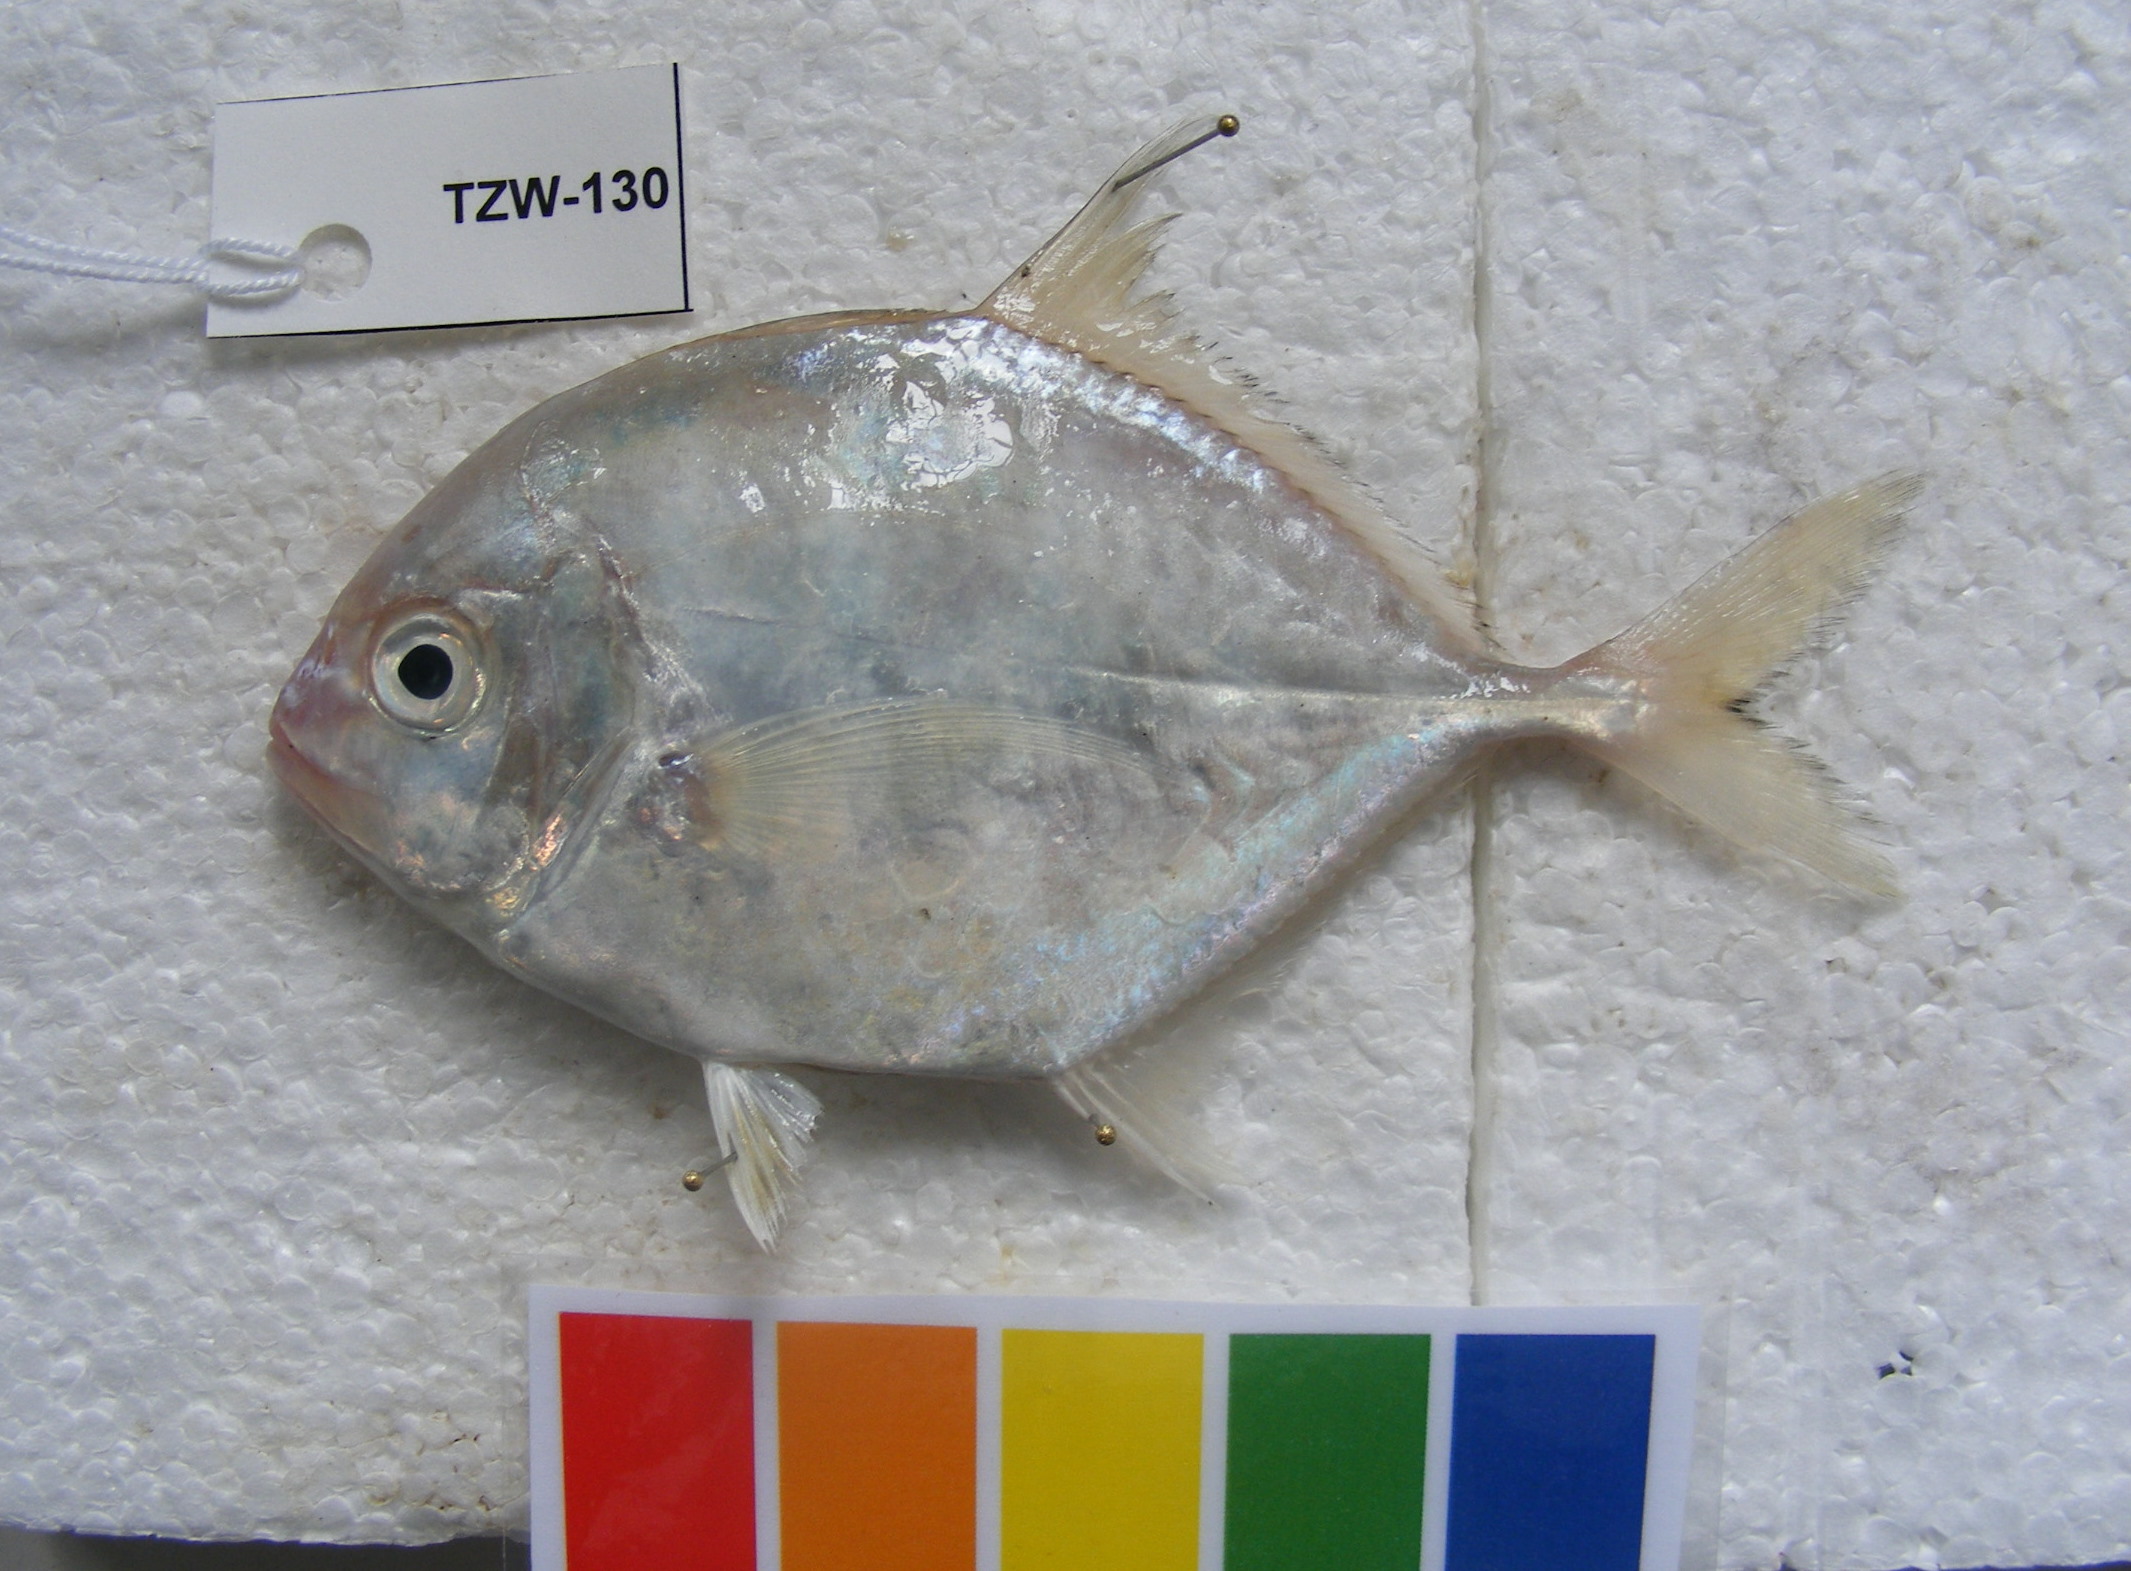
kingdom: Animalia
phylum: Chordata
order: Perciformes
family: Carangidae
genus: Carangoides
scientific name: Carangoides
